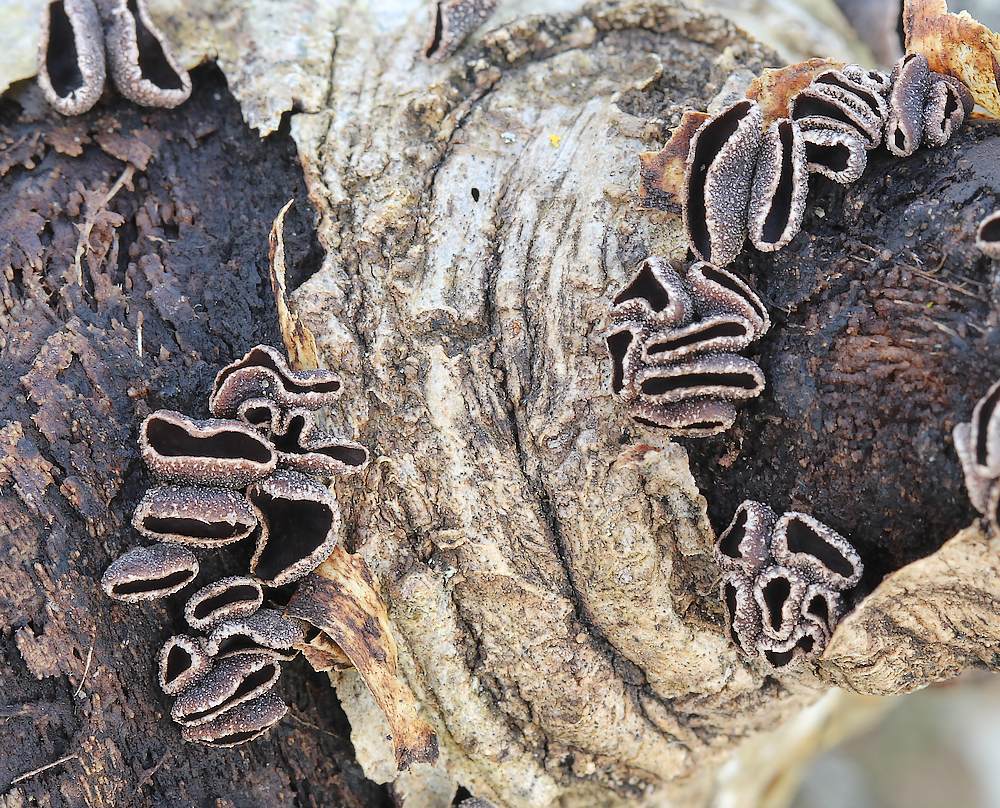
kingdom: Fungi
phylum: Ascomycota
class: Leotiomycetes
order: Helotiales
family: Sclerotiniaceae
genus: Sclerencoelia
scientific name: Sclerencoelia fascicularis
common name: poppel-læderskive
